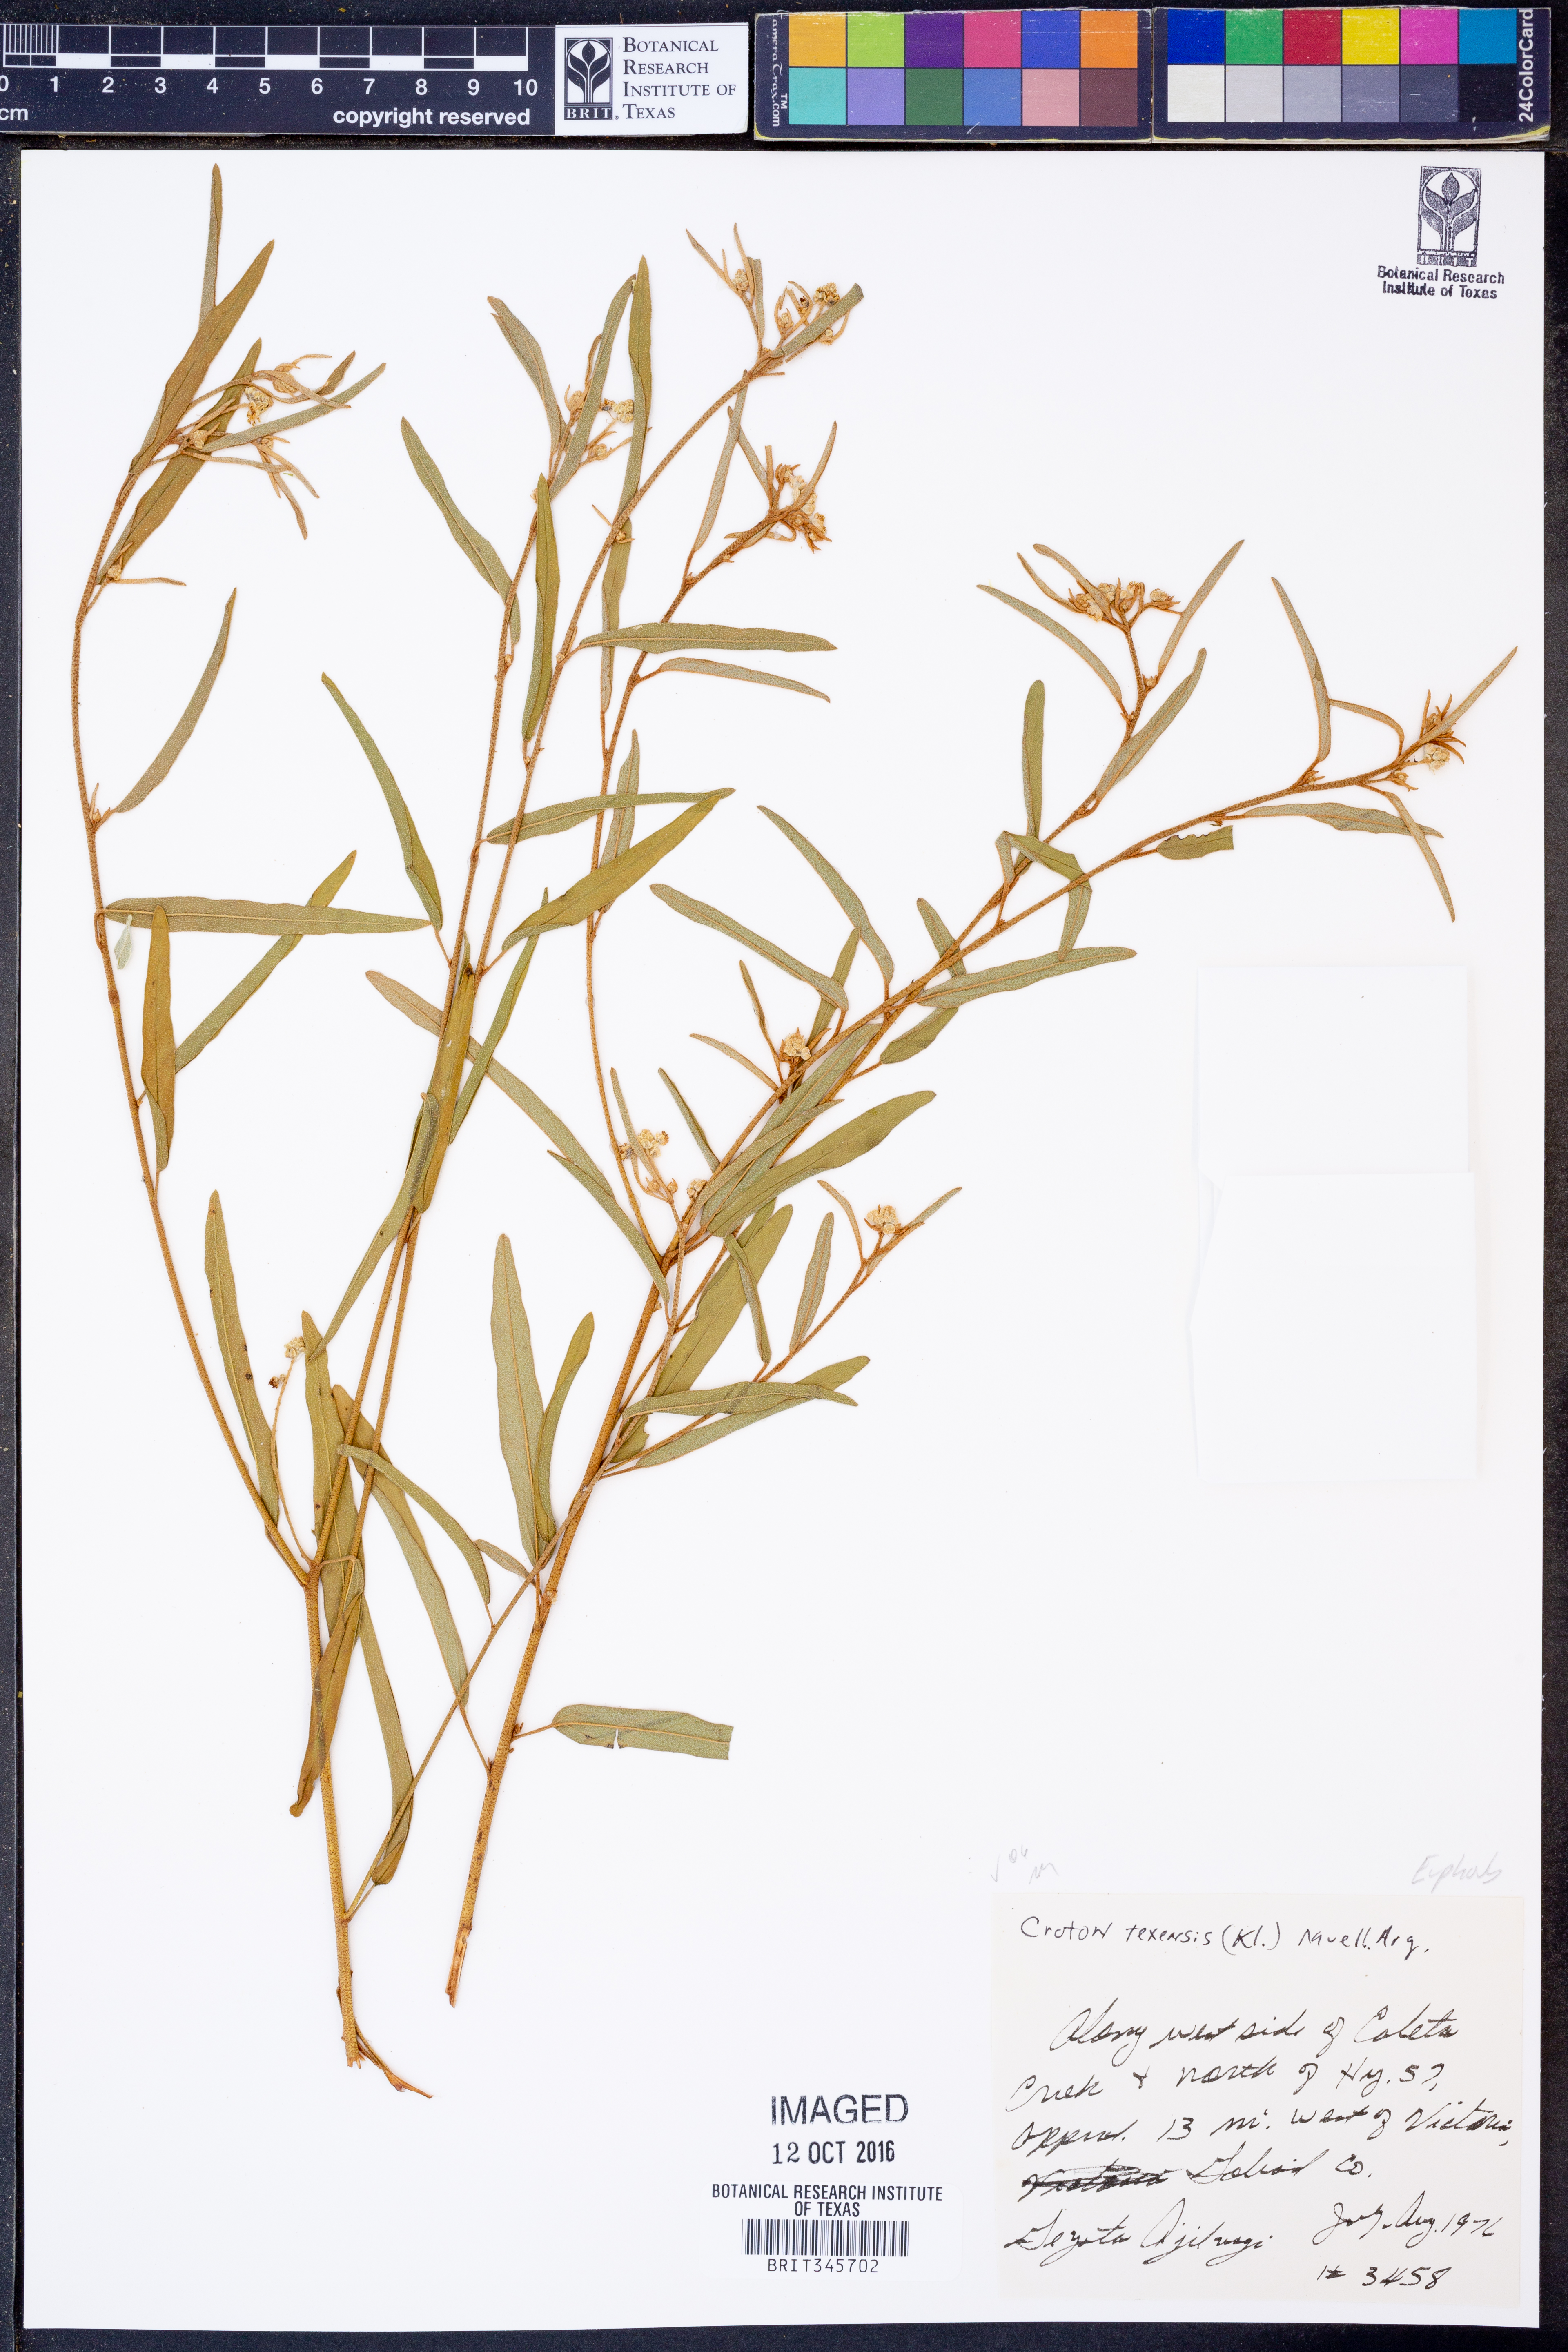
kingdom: Plantae
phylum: Tracheophyta
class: Magnoliopsida
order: Malpighiales
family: Euphorbiaceae
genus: Croton
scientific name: Croton texensis
